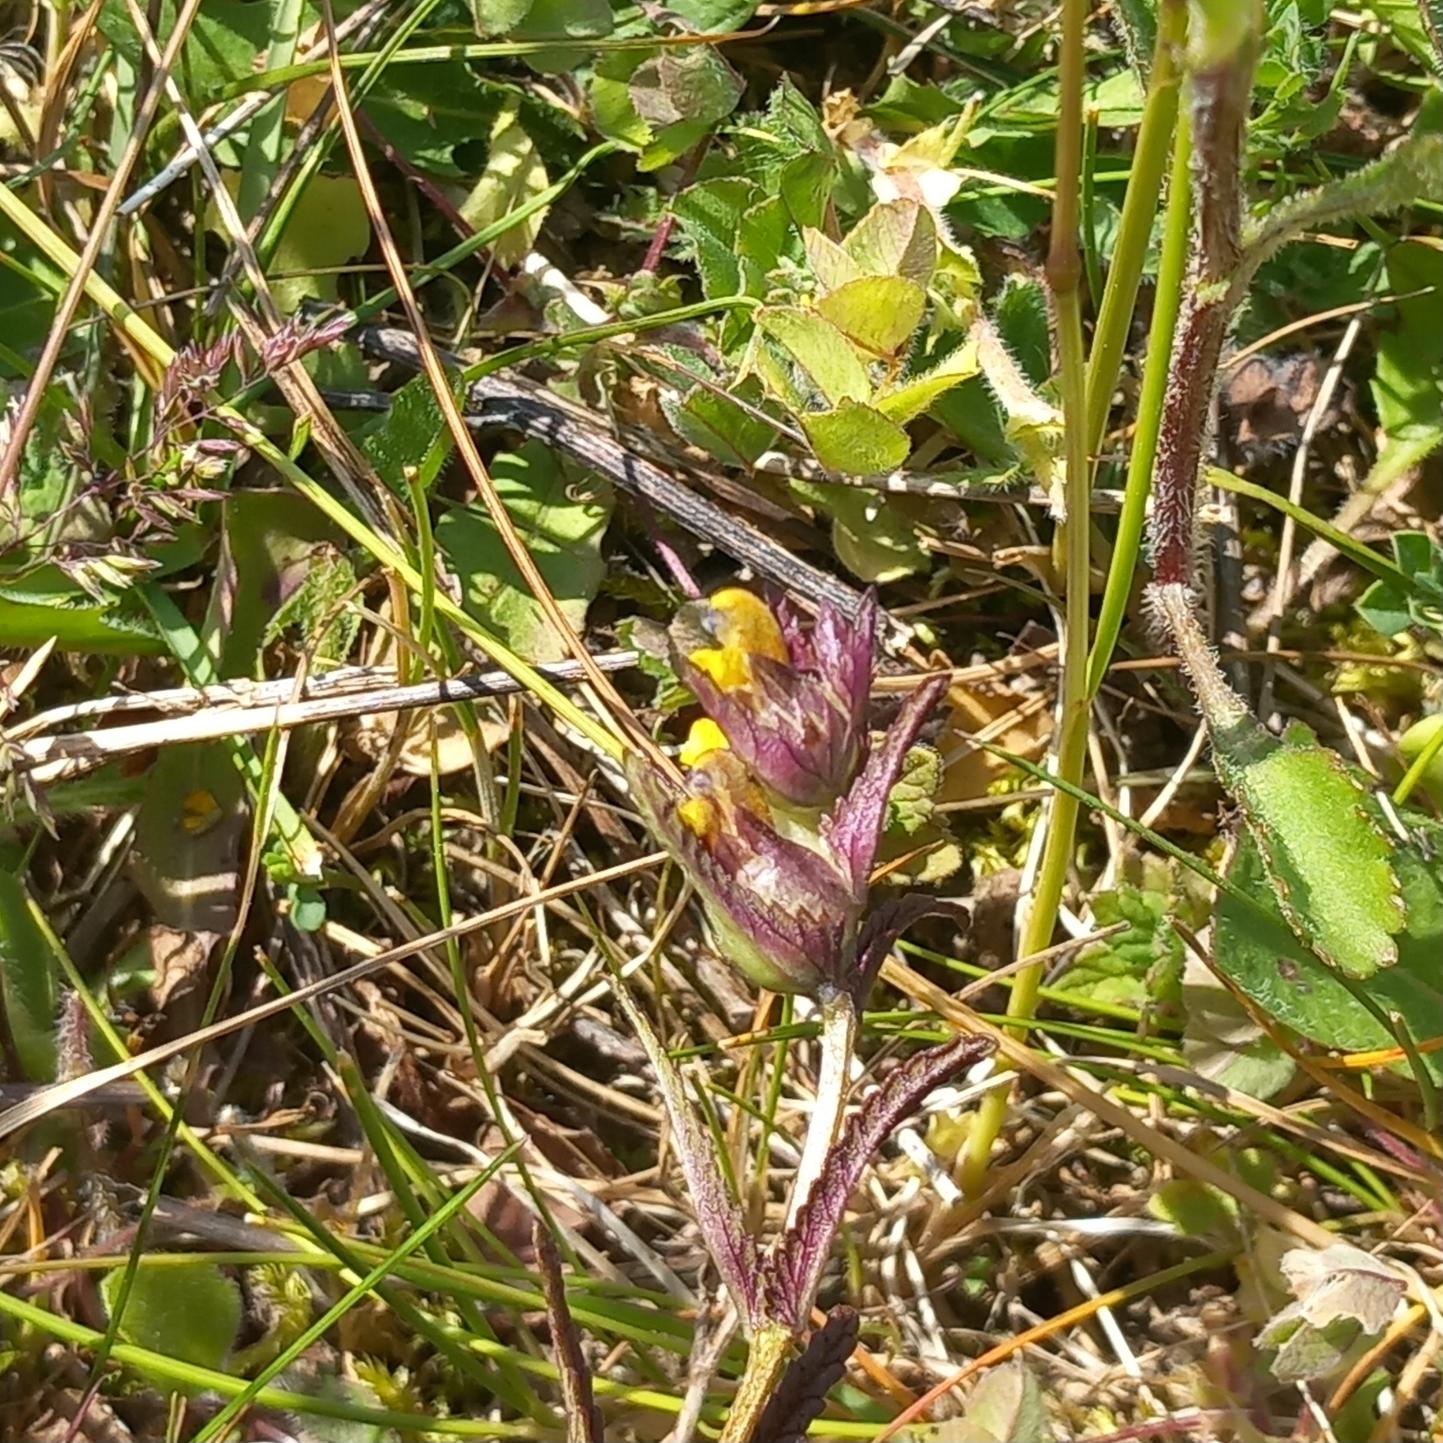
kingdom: Plantae
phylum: Tracheophyta
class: Magnoliopsida
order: Lamiales
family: Orobanchaceae
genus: Rhinanthus
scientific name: Rhinanthus minor
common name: Liden skjaller
